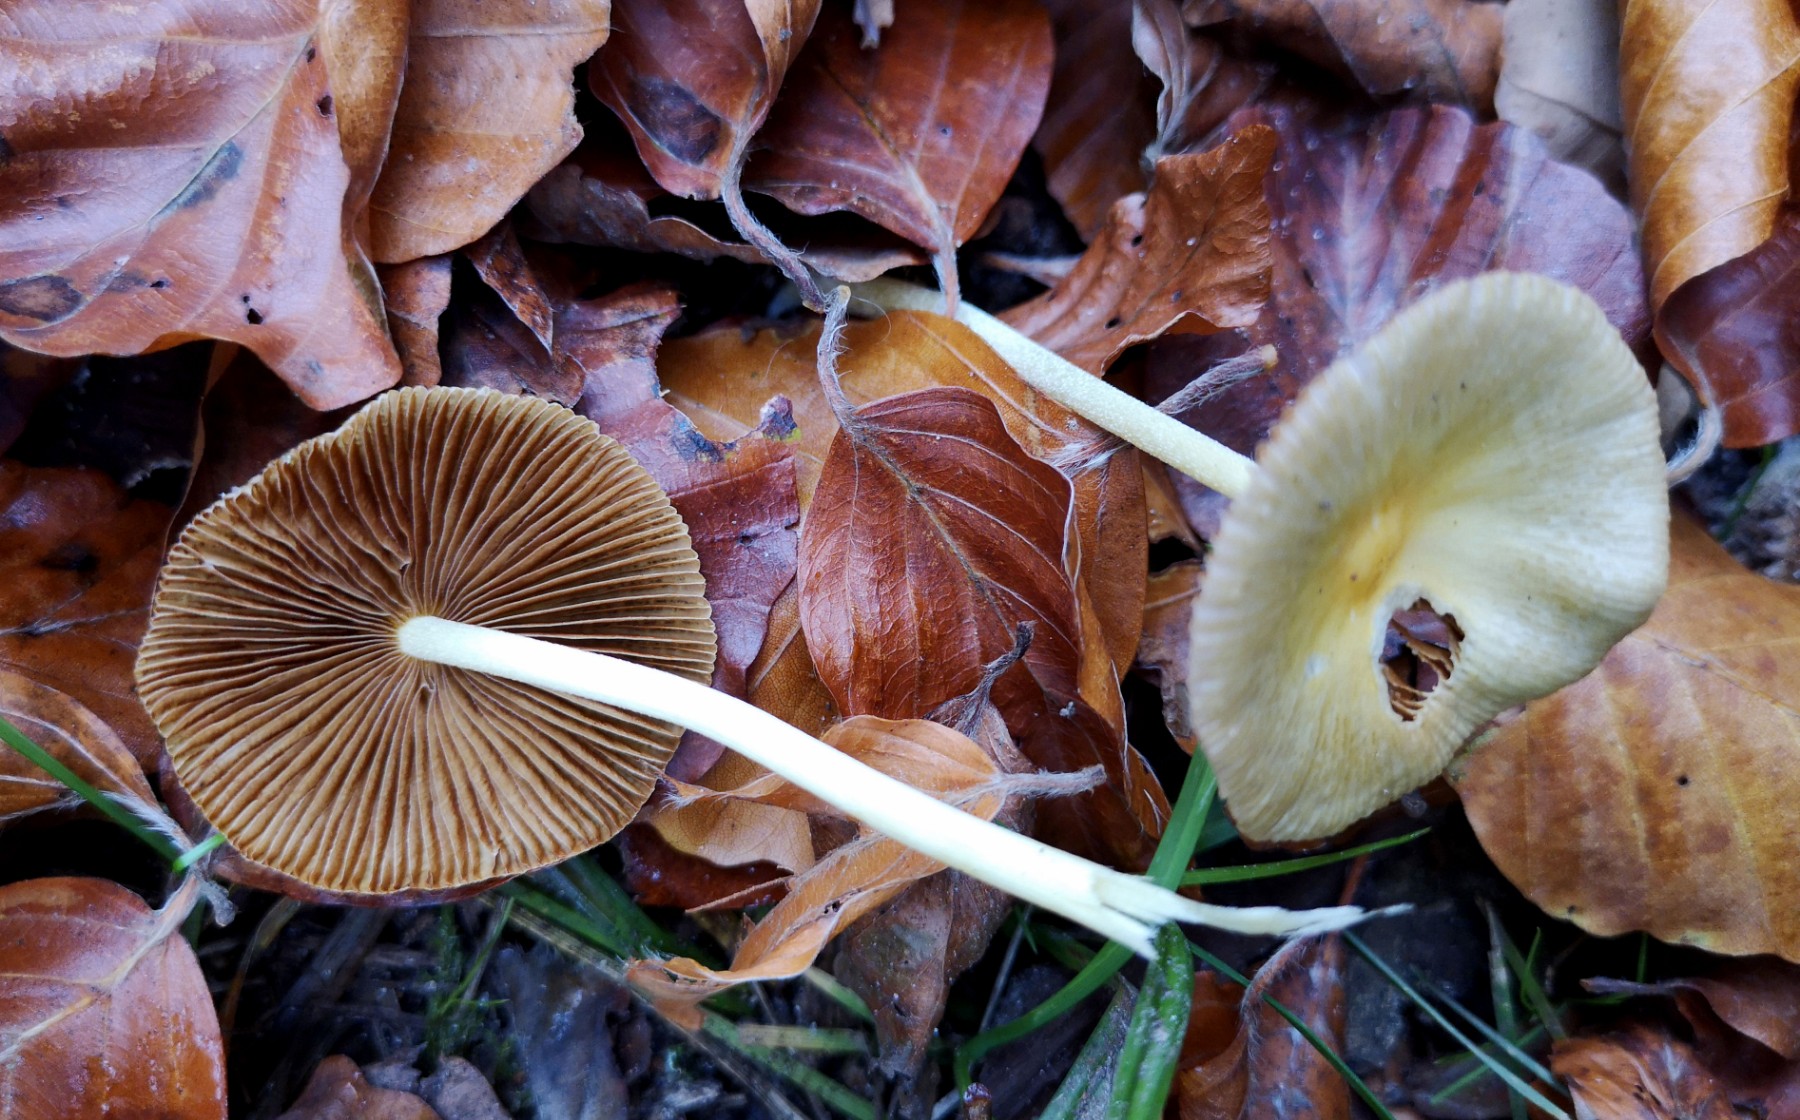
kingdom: Fungi
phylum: Basidiomycota
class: Agaricomycetes
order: Agaricales
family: Bolbitiaceae
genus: Bolbitius
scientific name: Bolbitius titubans
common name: almindelig gulhat
